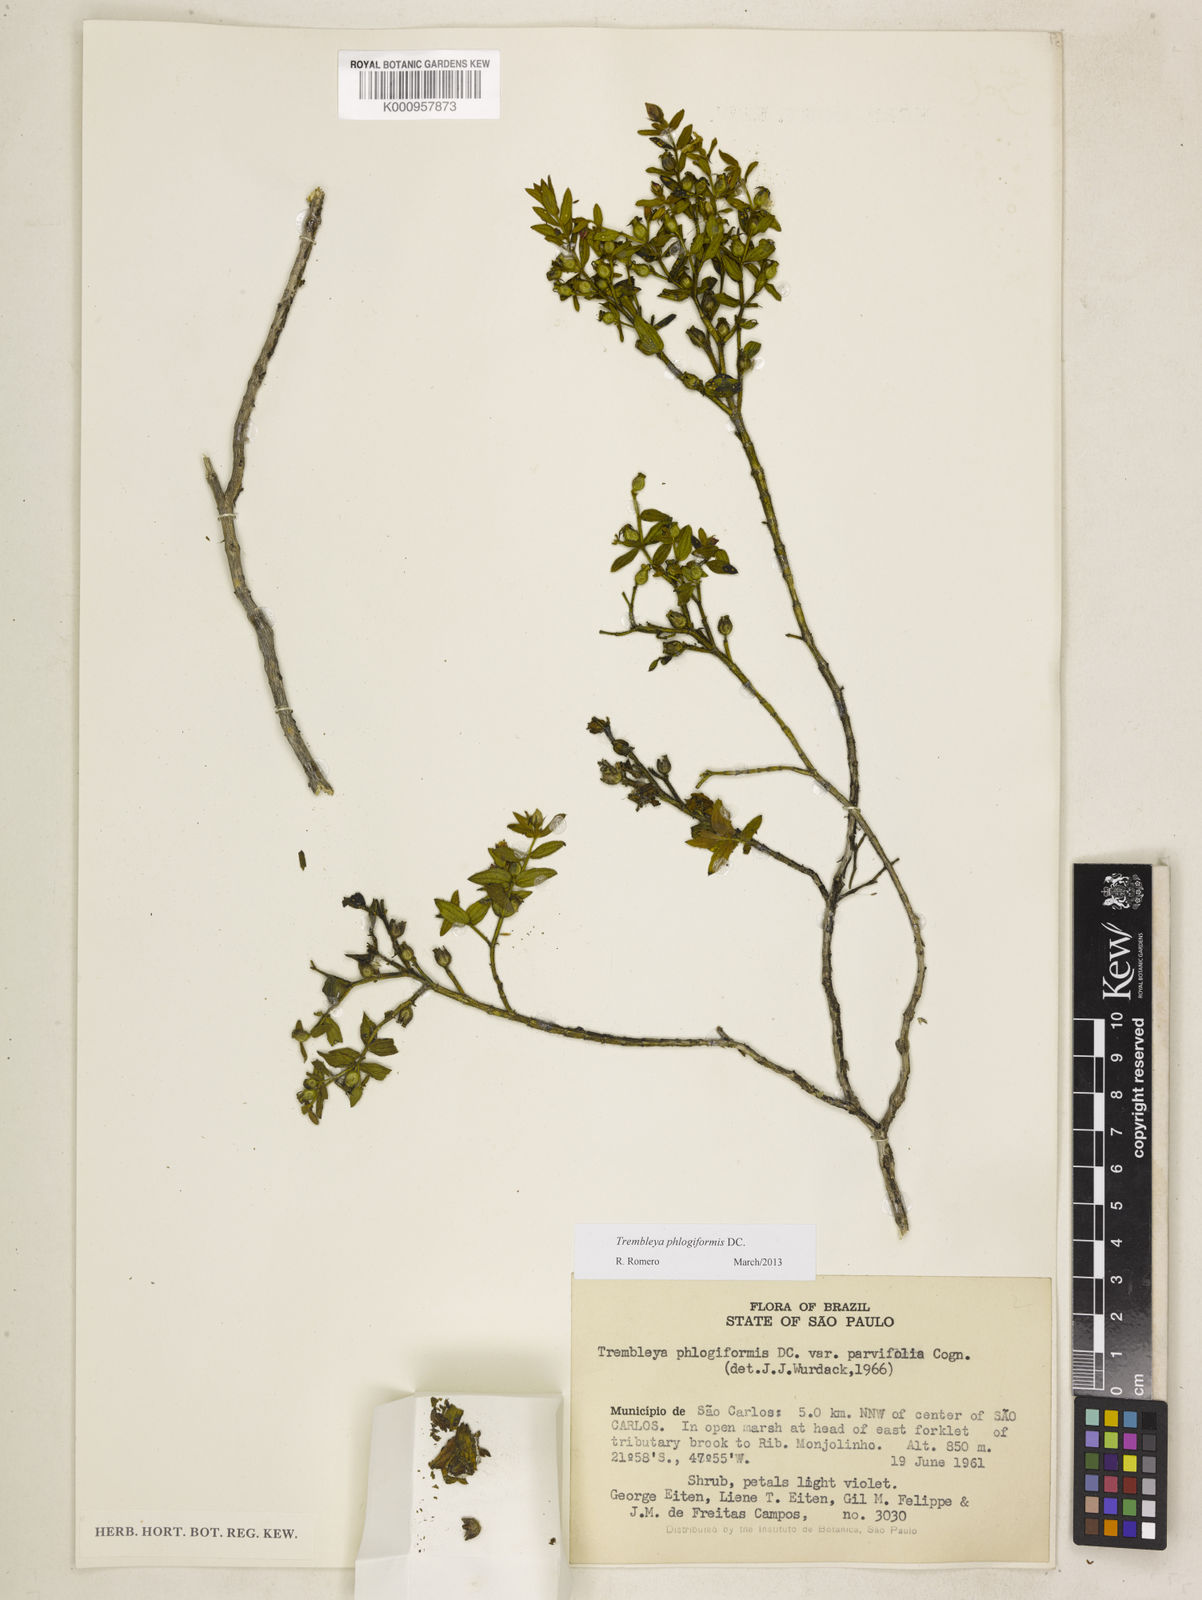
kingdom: Plantae
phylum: Tracheophyta
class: Magnoliopsida
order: Myrtales
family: Melastomataceae
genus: Microlicia
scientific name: Microlicia phlogiformis
